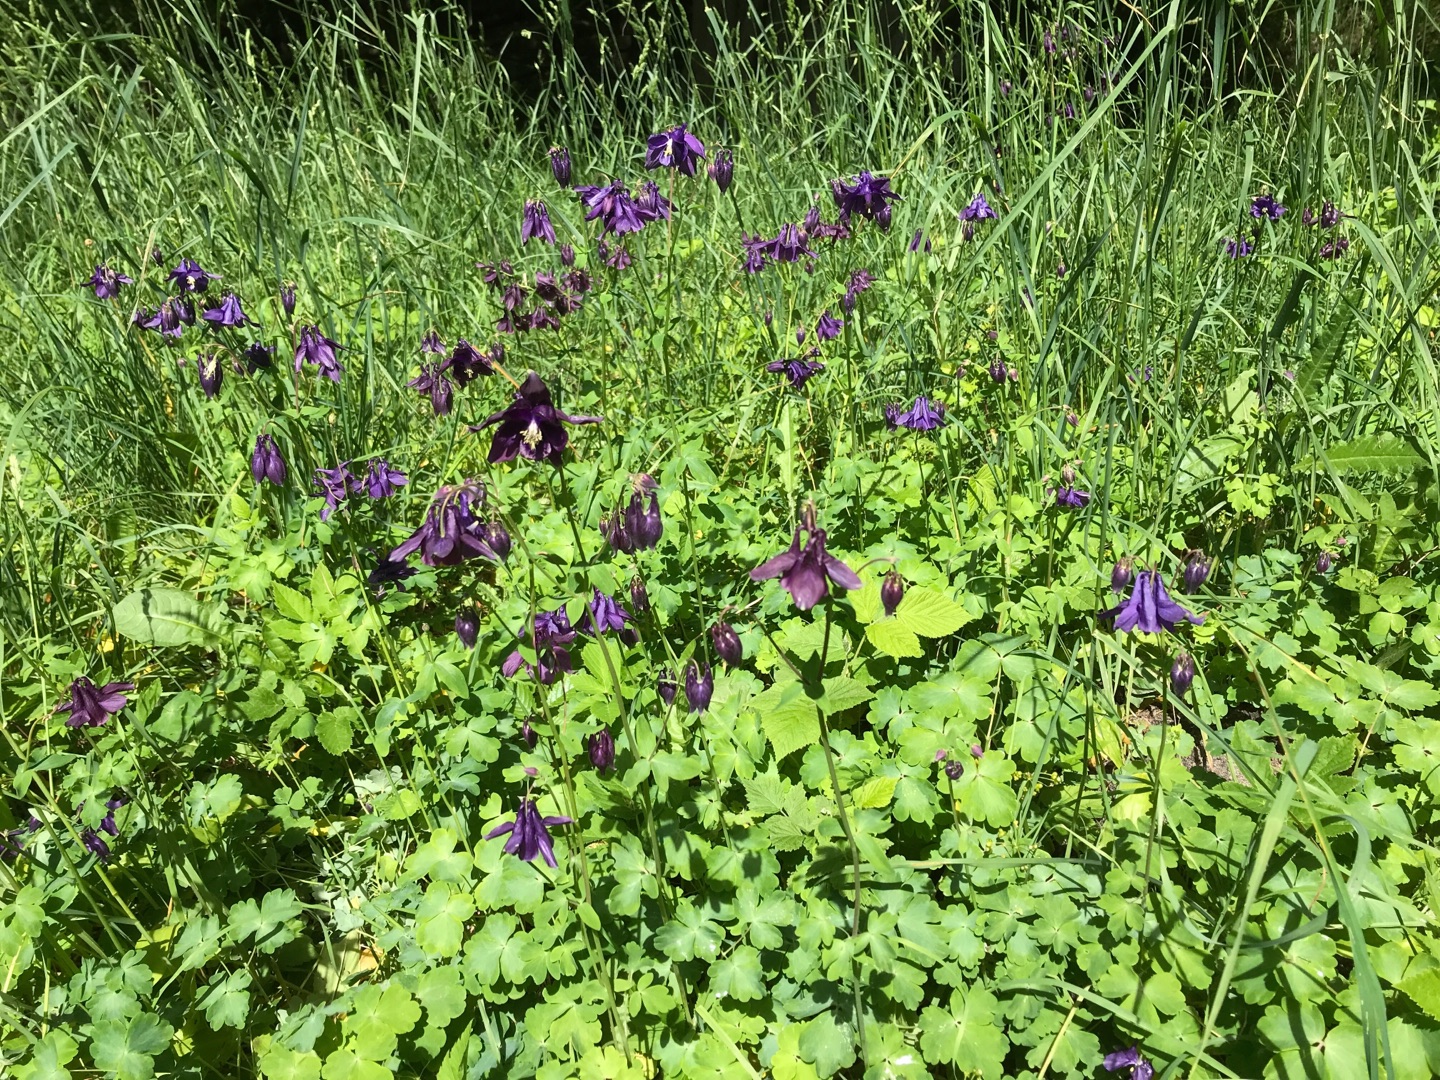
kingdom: Plantae
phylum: Tracheophyta
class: Magnoliopsida
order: Ranunculales
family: Ranunculaceae
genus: Aquilegia
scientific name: Aquilegia vulgaris
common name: Akeleje
